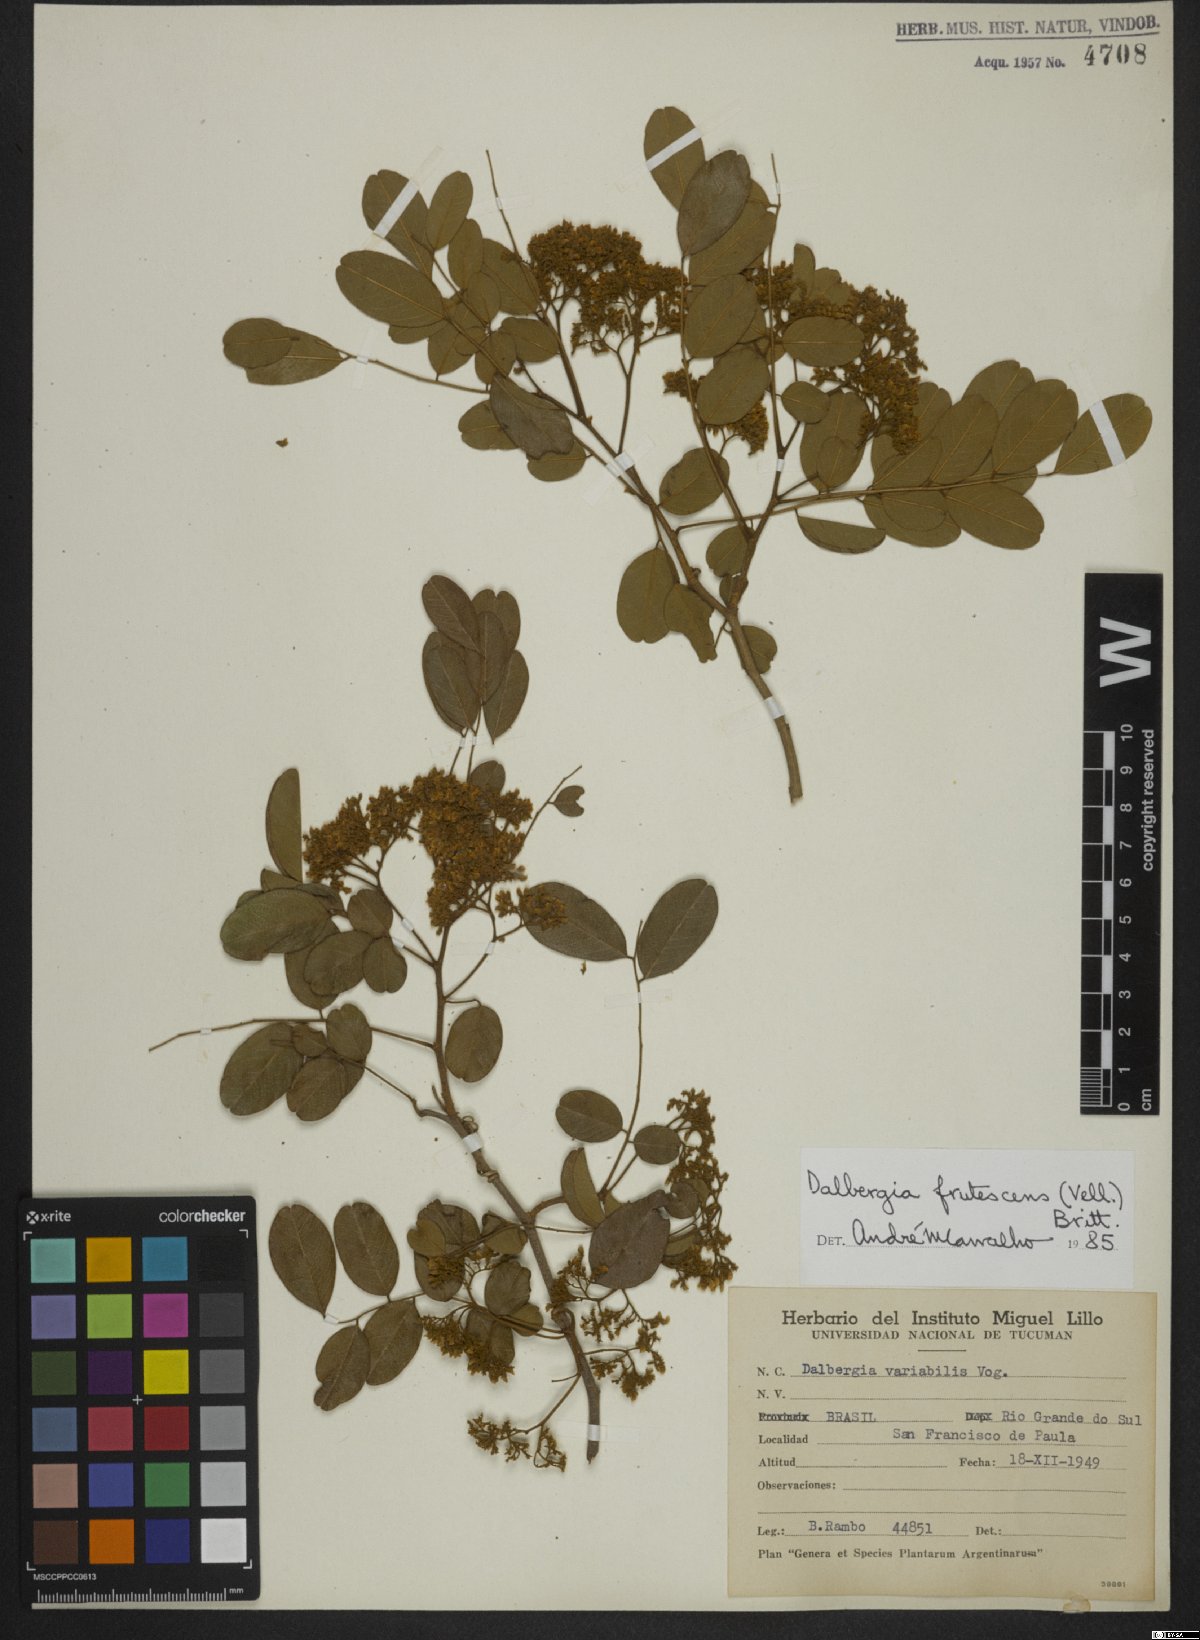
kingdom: Plantae
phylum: Tracheophyta
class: Magnoliopsida
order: Fabales
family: Fabaceae
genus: Dalbergia
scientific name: Dalbergia frutescens
